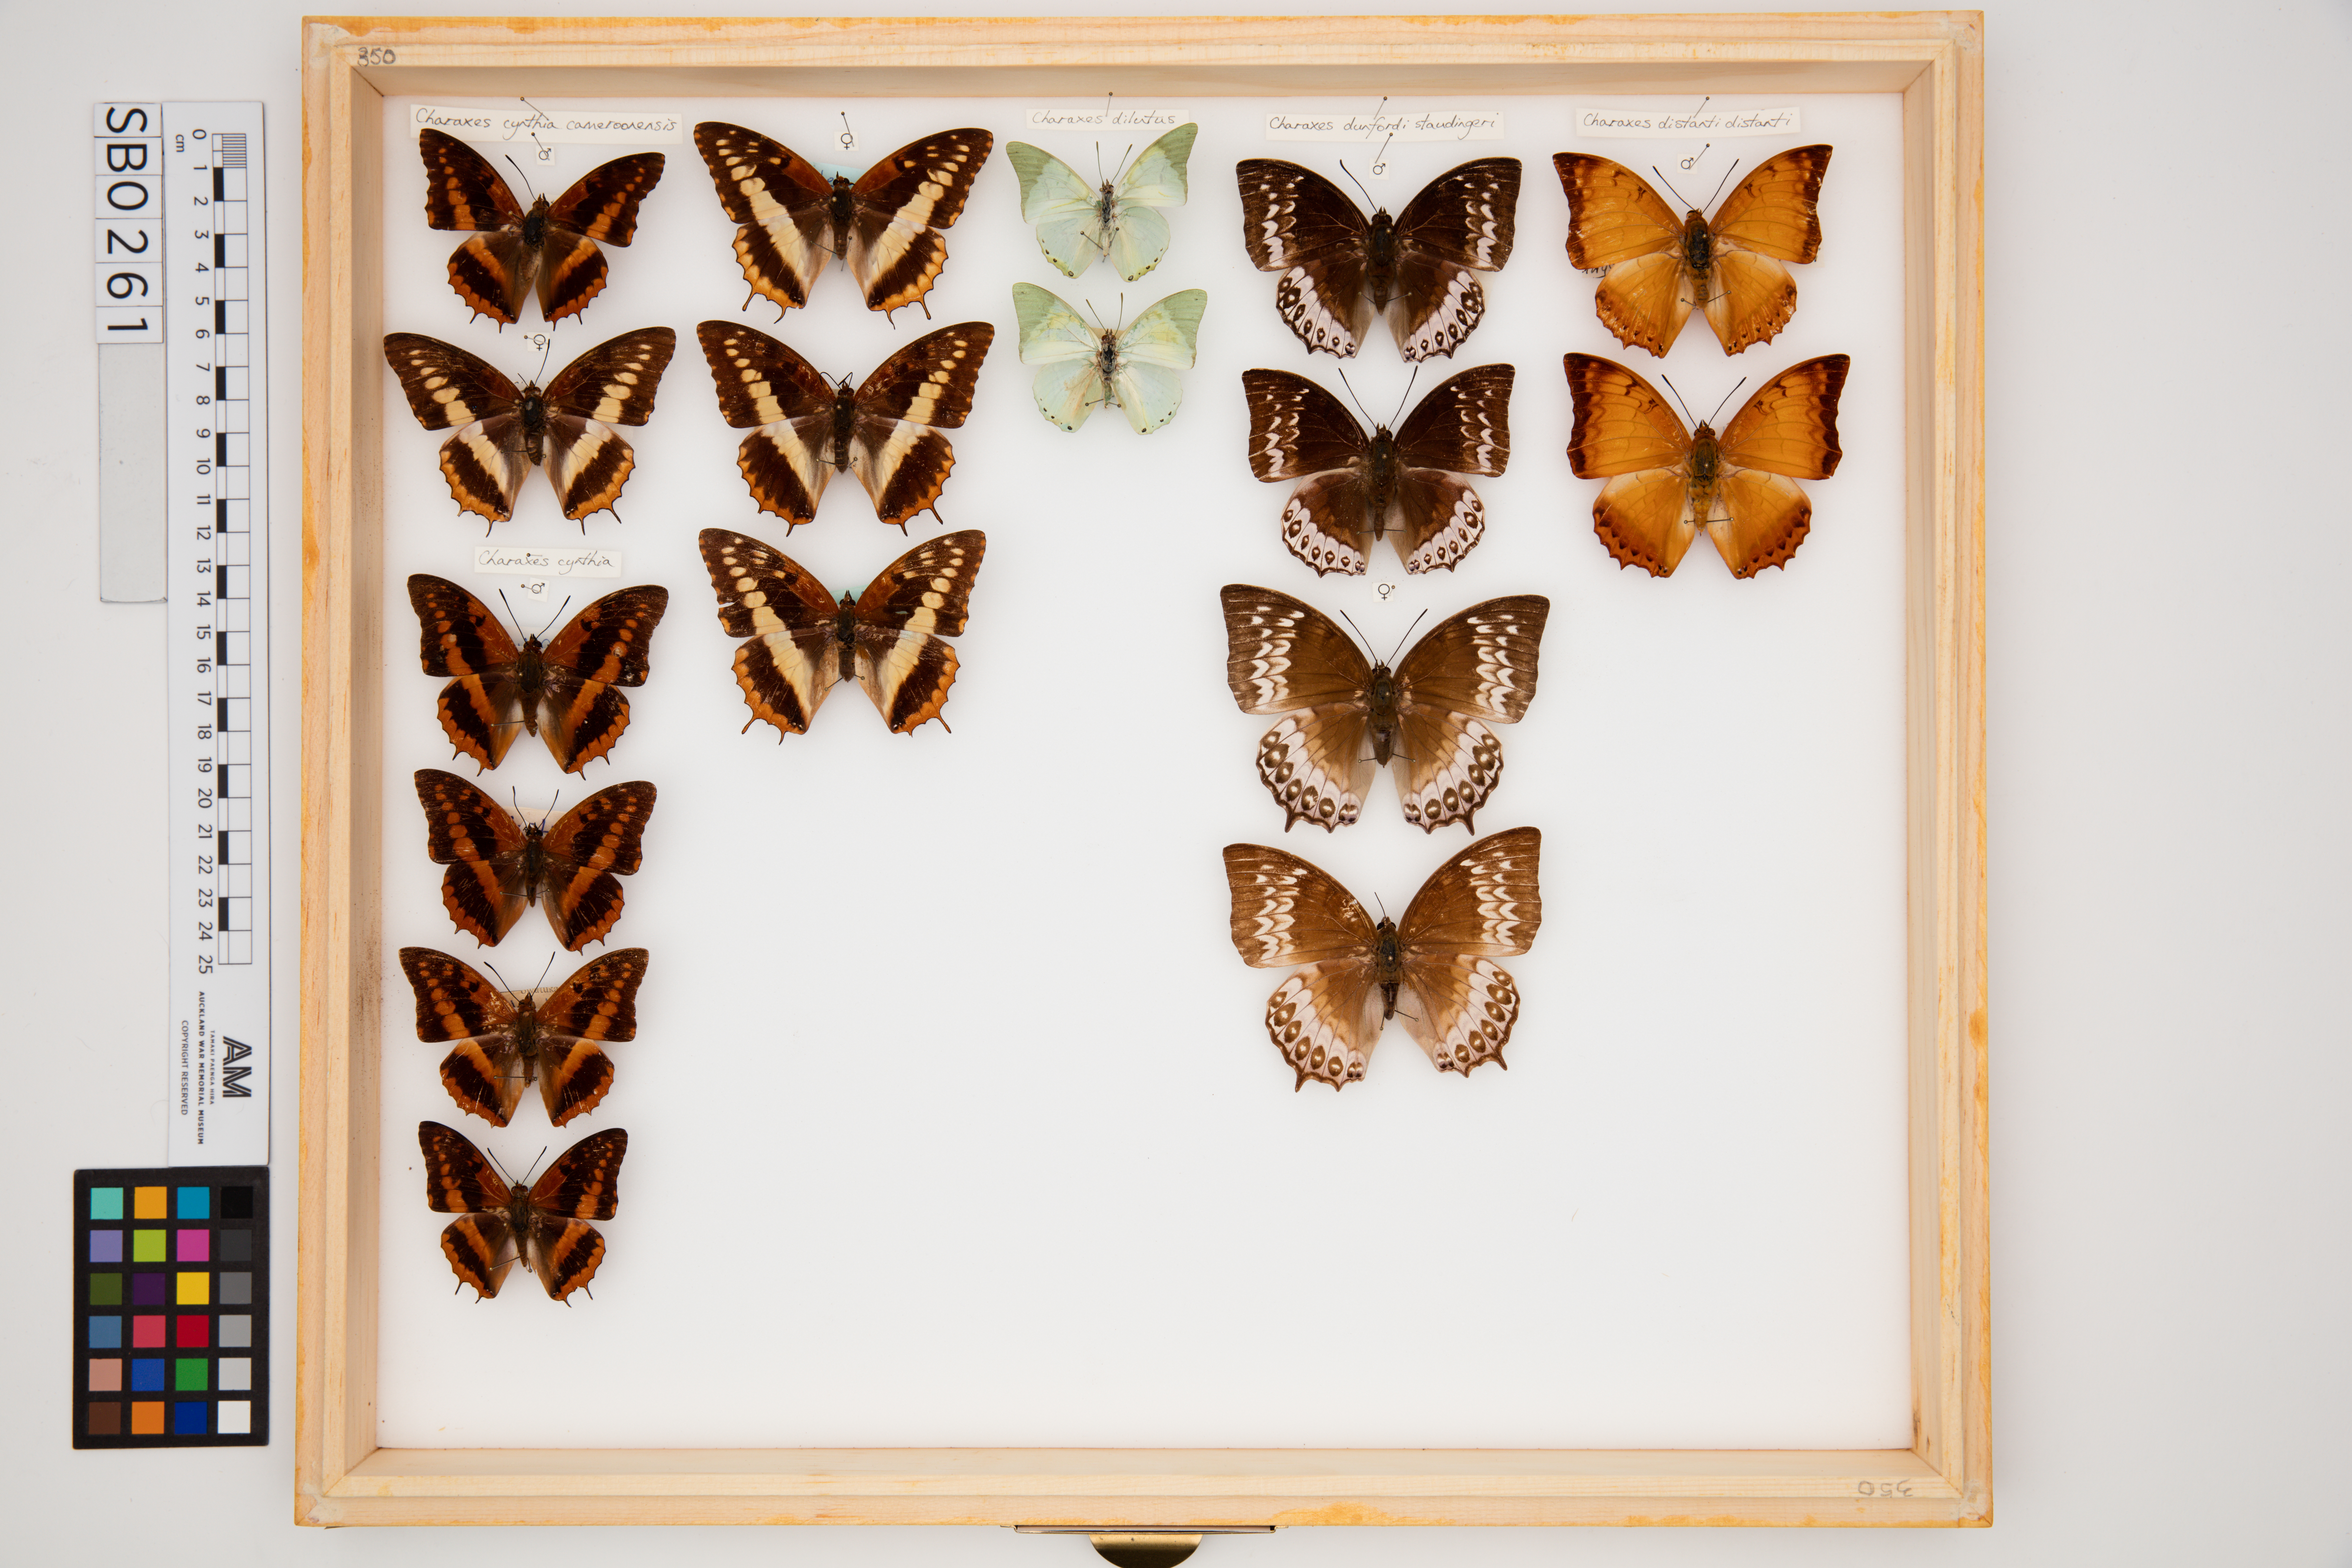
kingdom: Animalia
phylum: Arthropoda
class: Insecta
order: Lepidoptera
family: Nymphalidae
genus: Charaxes
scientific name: Charaxes dilutus
